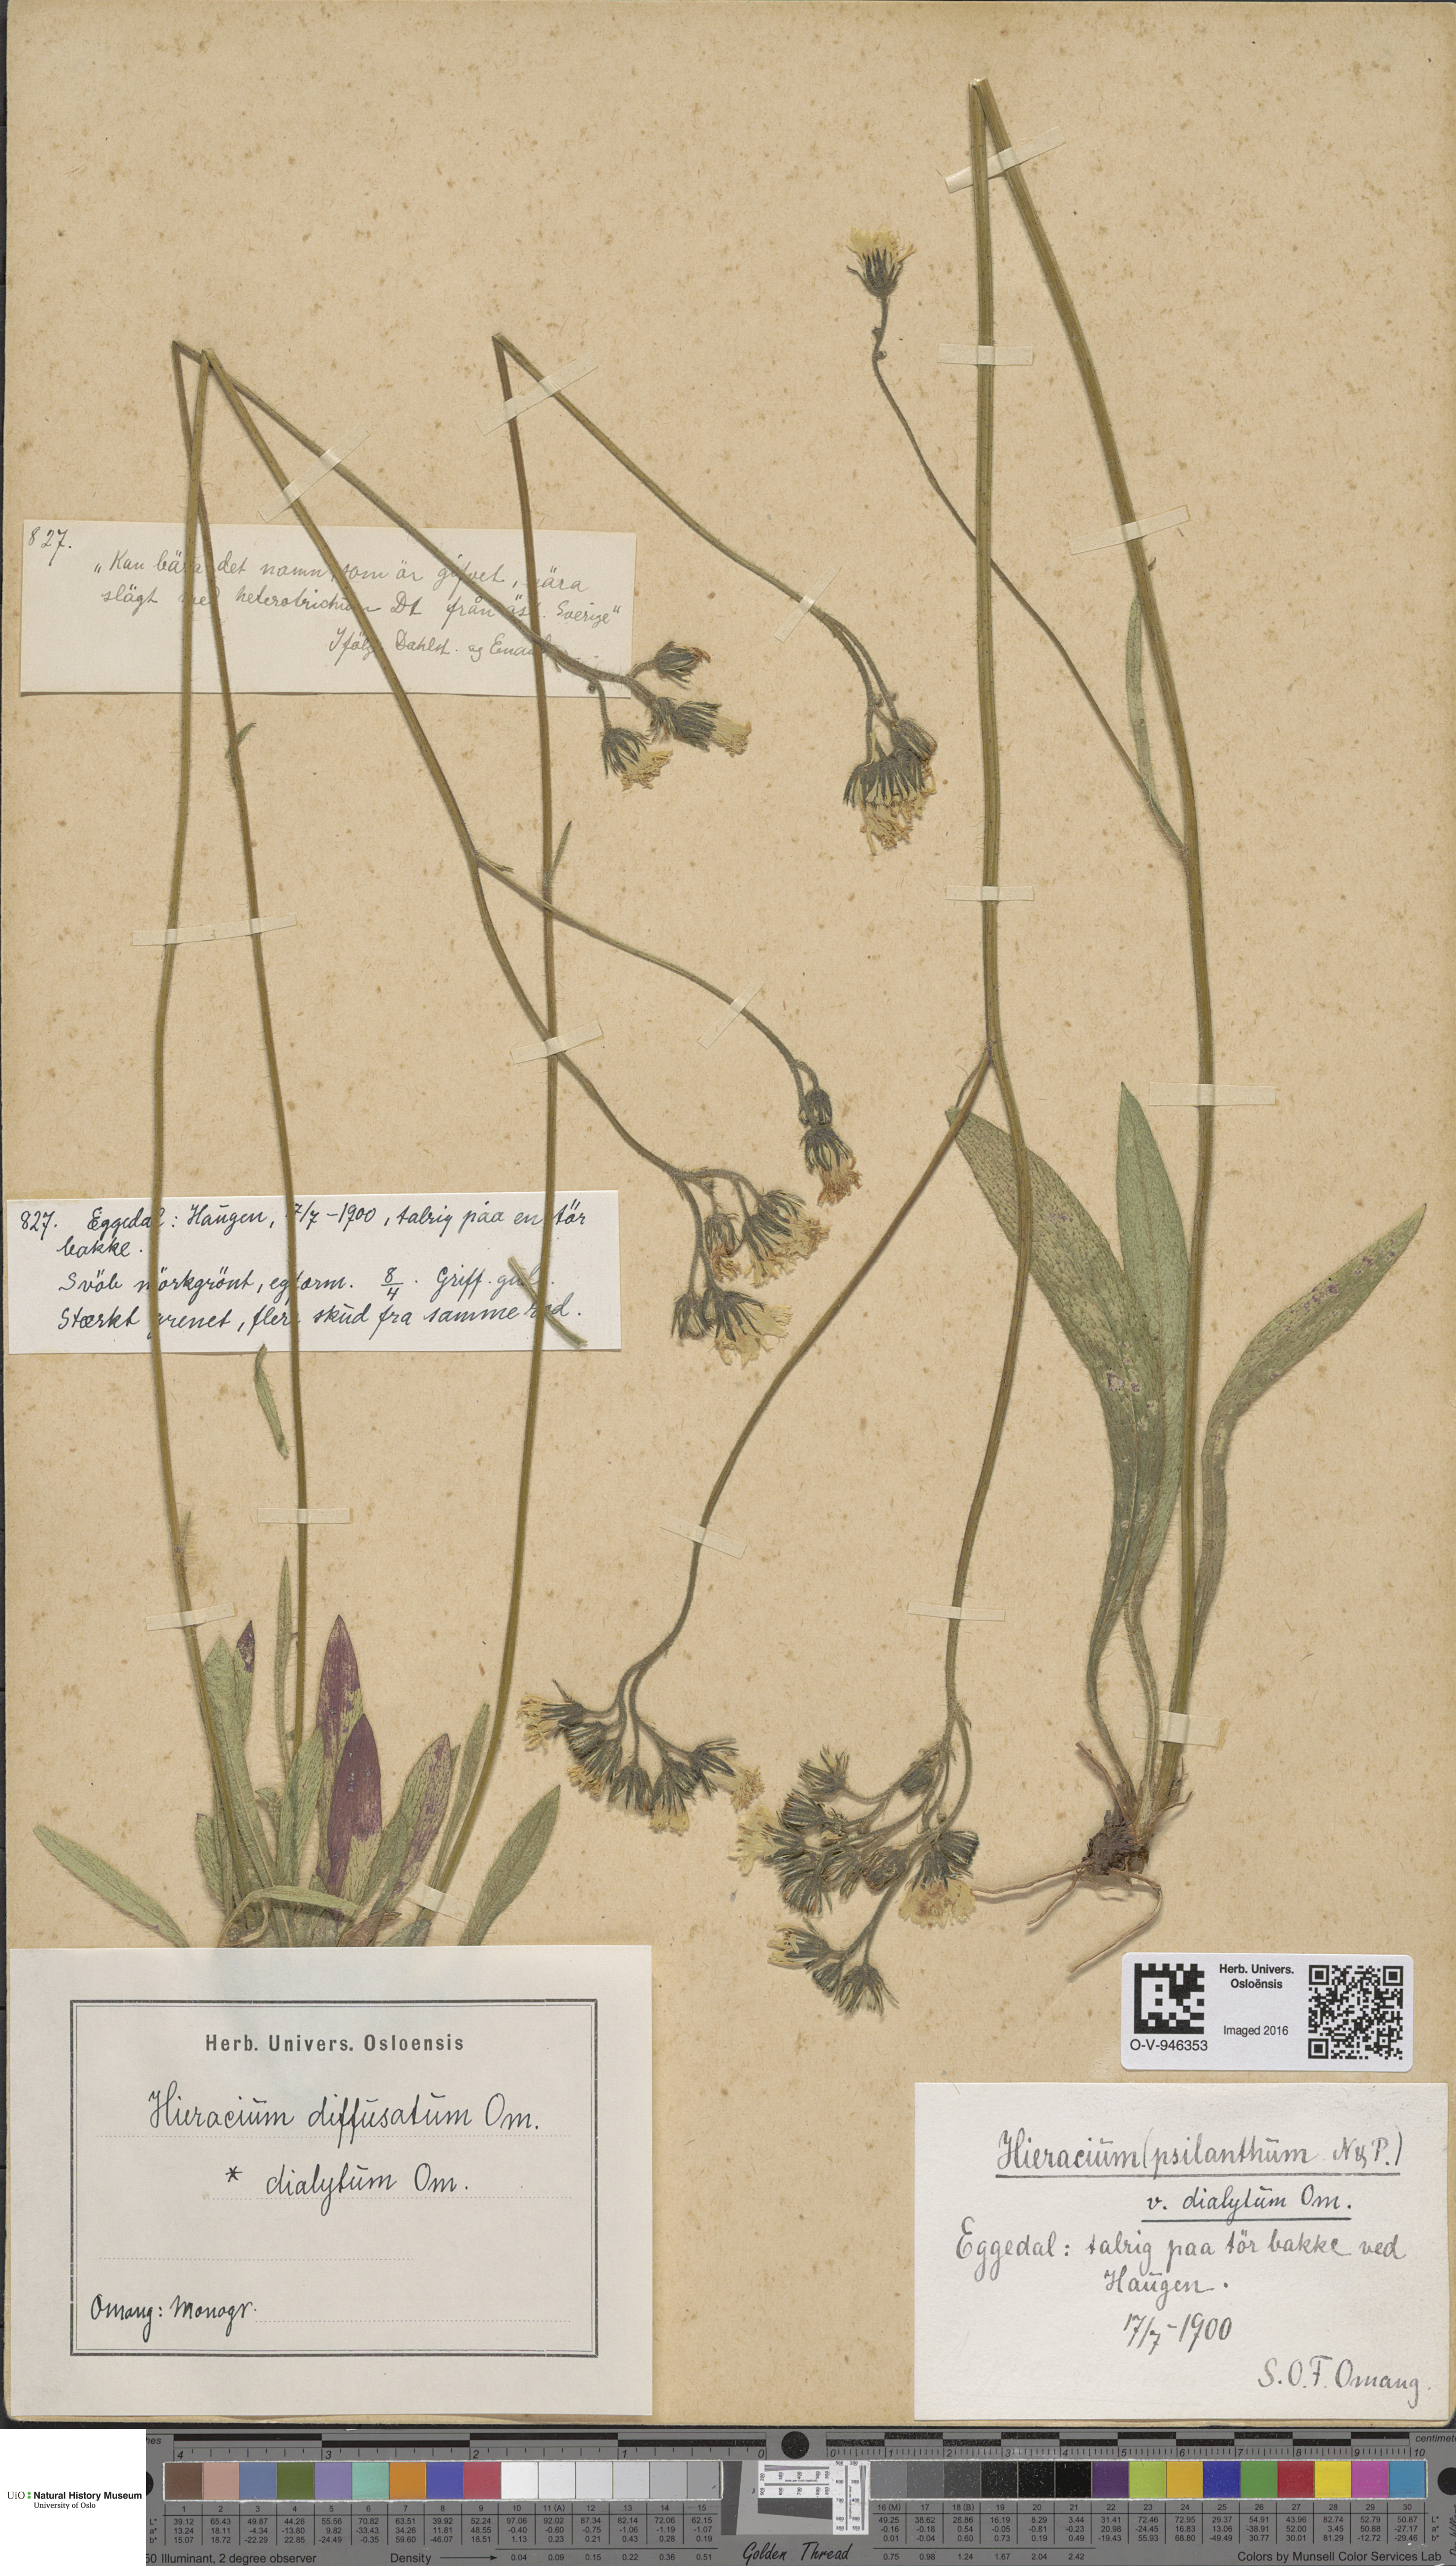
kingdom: Plantae
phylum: Tracheophyta
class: Magnoliopsida
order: Asterales
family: Asteraceae
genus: Pilosella
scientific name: Pilosella dubia
